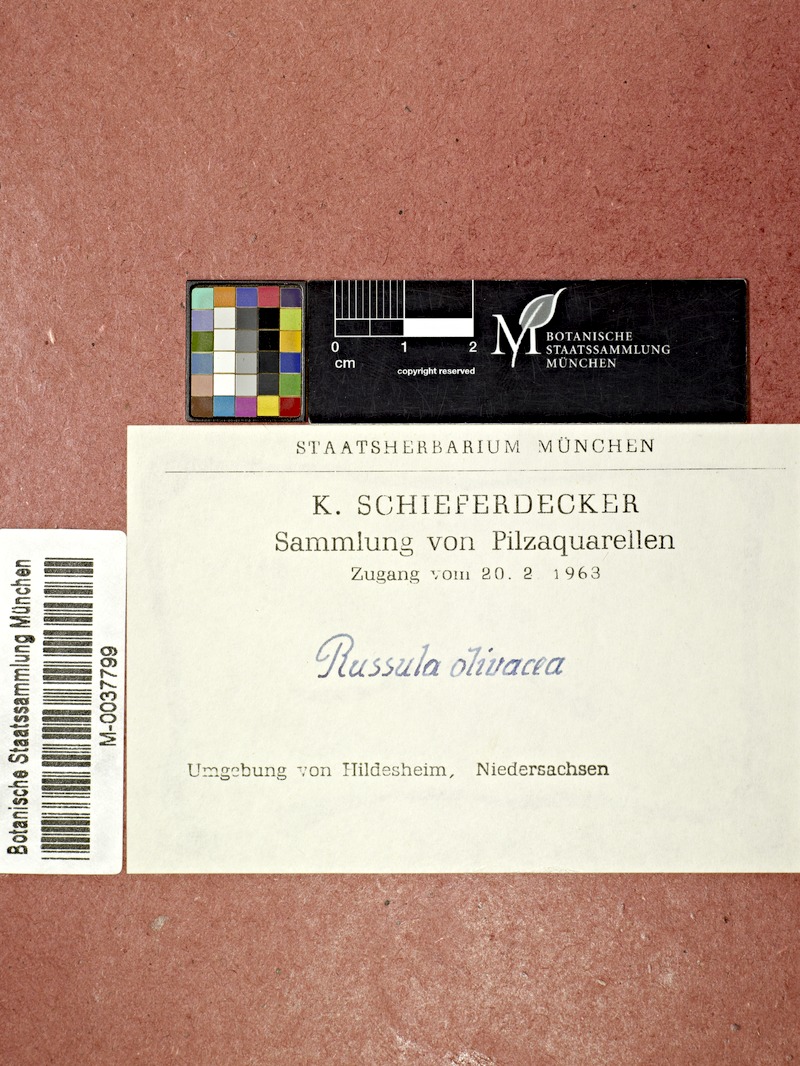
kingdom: Fungi
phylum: Basidiomycota
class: Agaricomycetes
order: Russulales
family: Russulaceae
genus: Russula
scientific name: Russula olivacea
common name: Olive brittlegill
